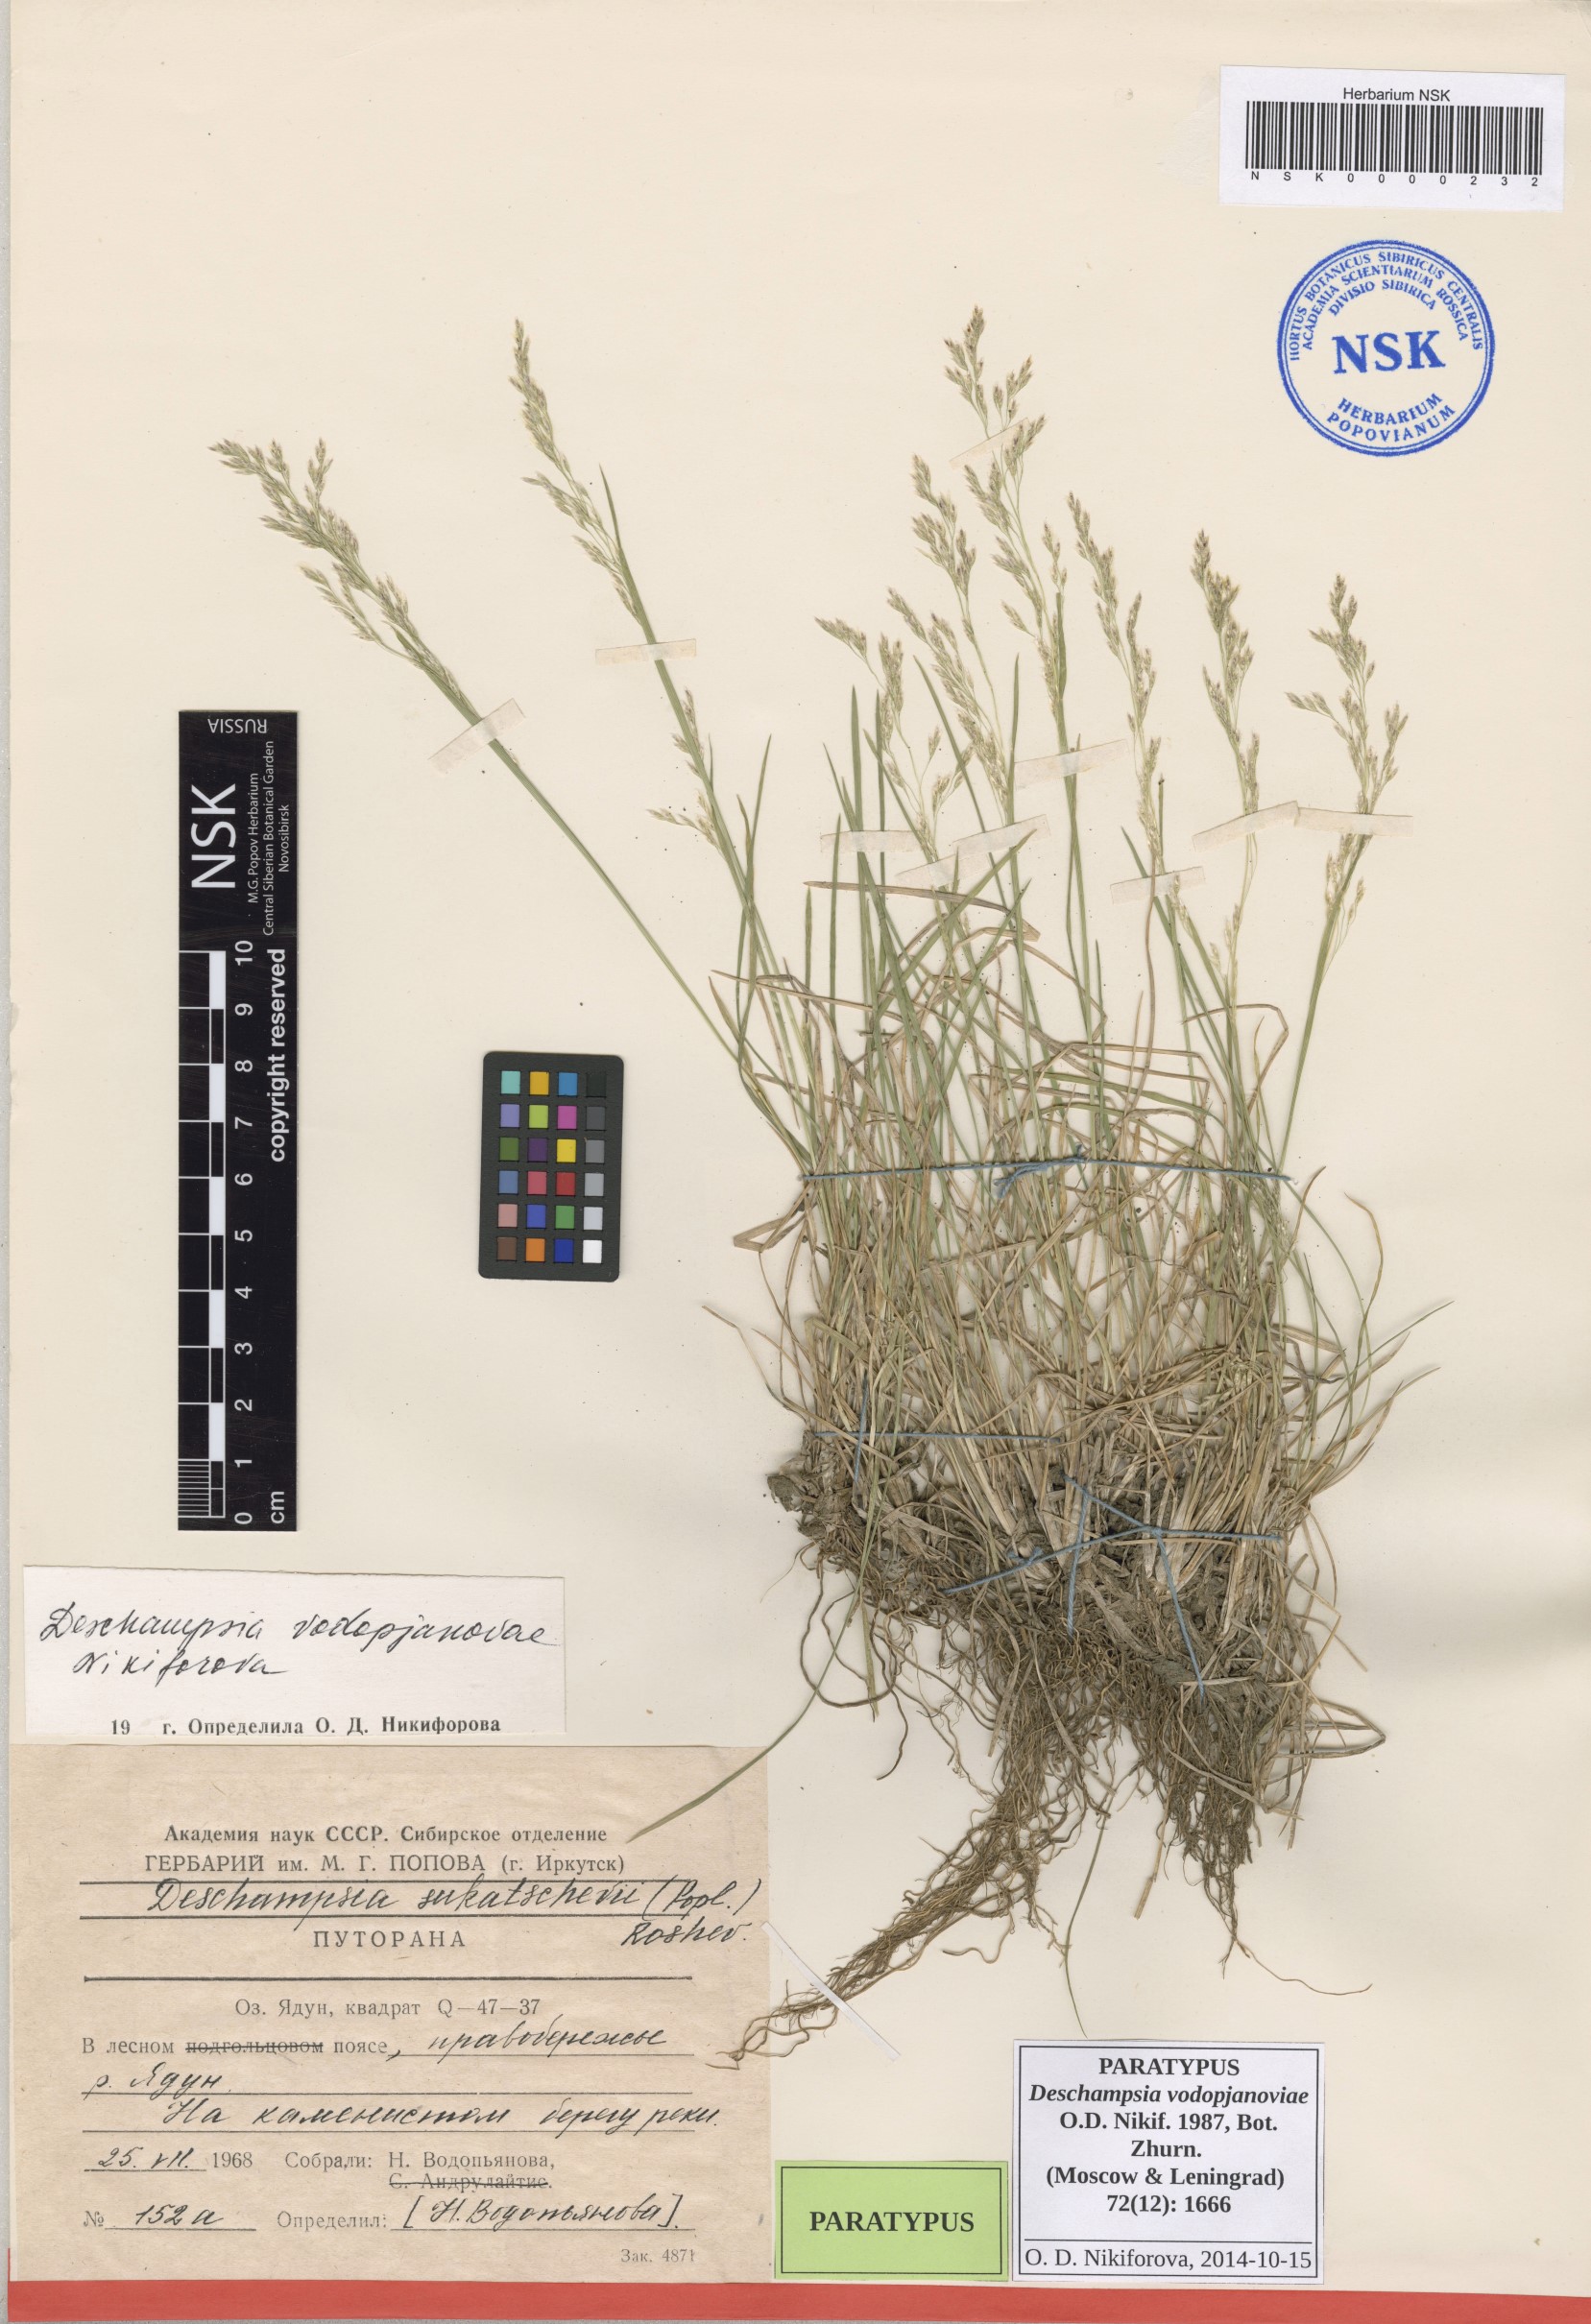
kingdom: Plantae
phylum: Tracheophyta
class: Liliopsida
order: Poales
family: Poaceae
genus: Deschampsia
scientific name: Deschampsia cespitosa
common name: Tufted hair-grass
